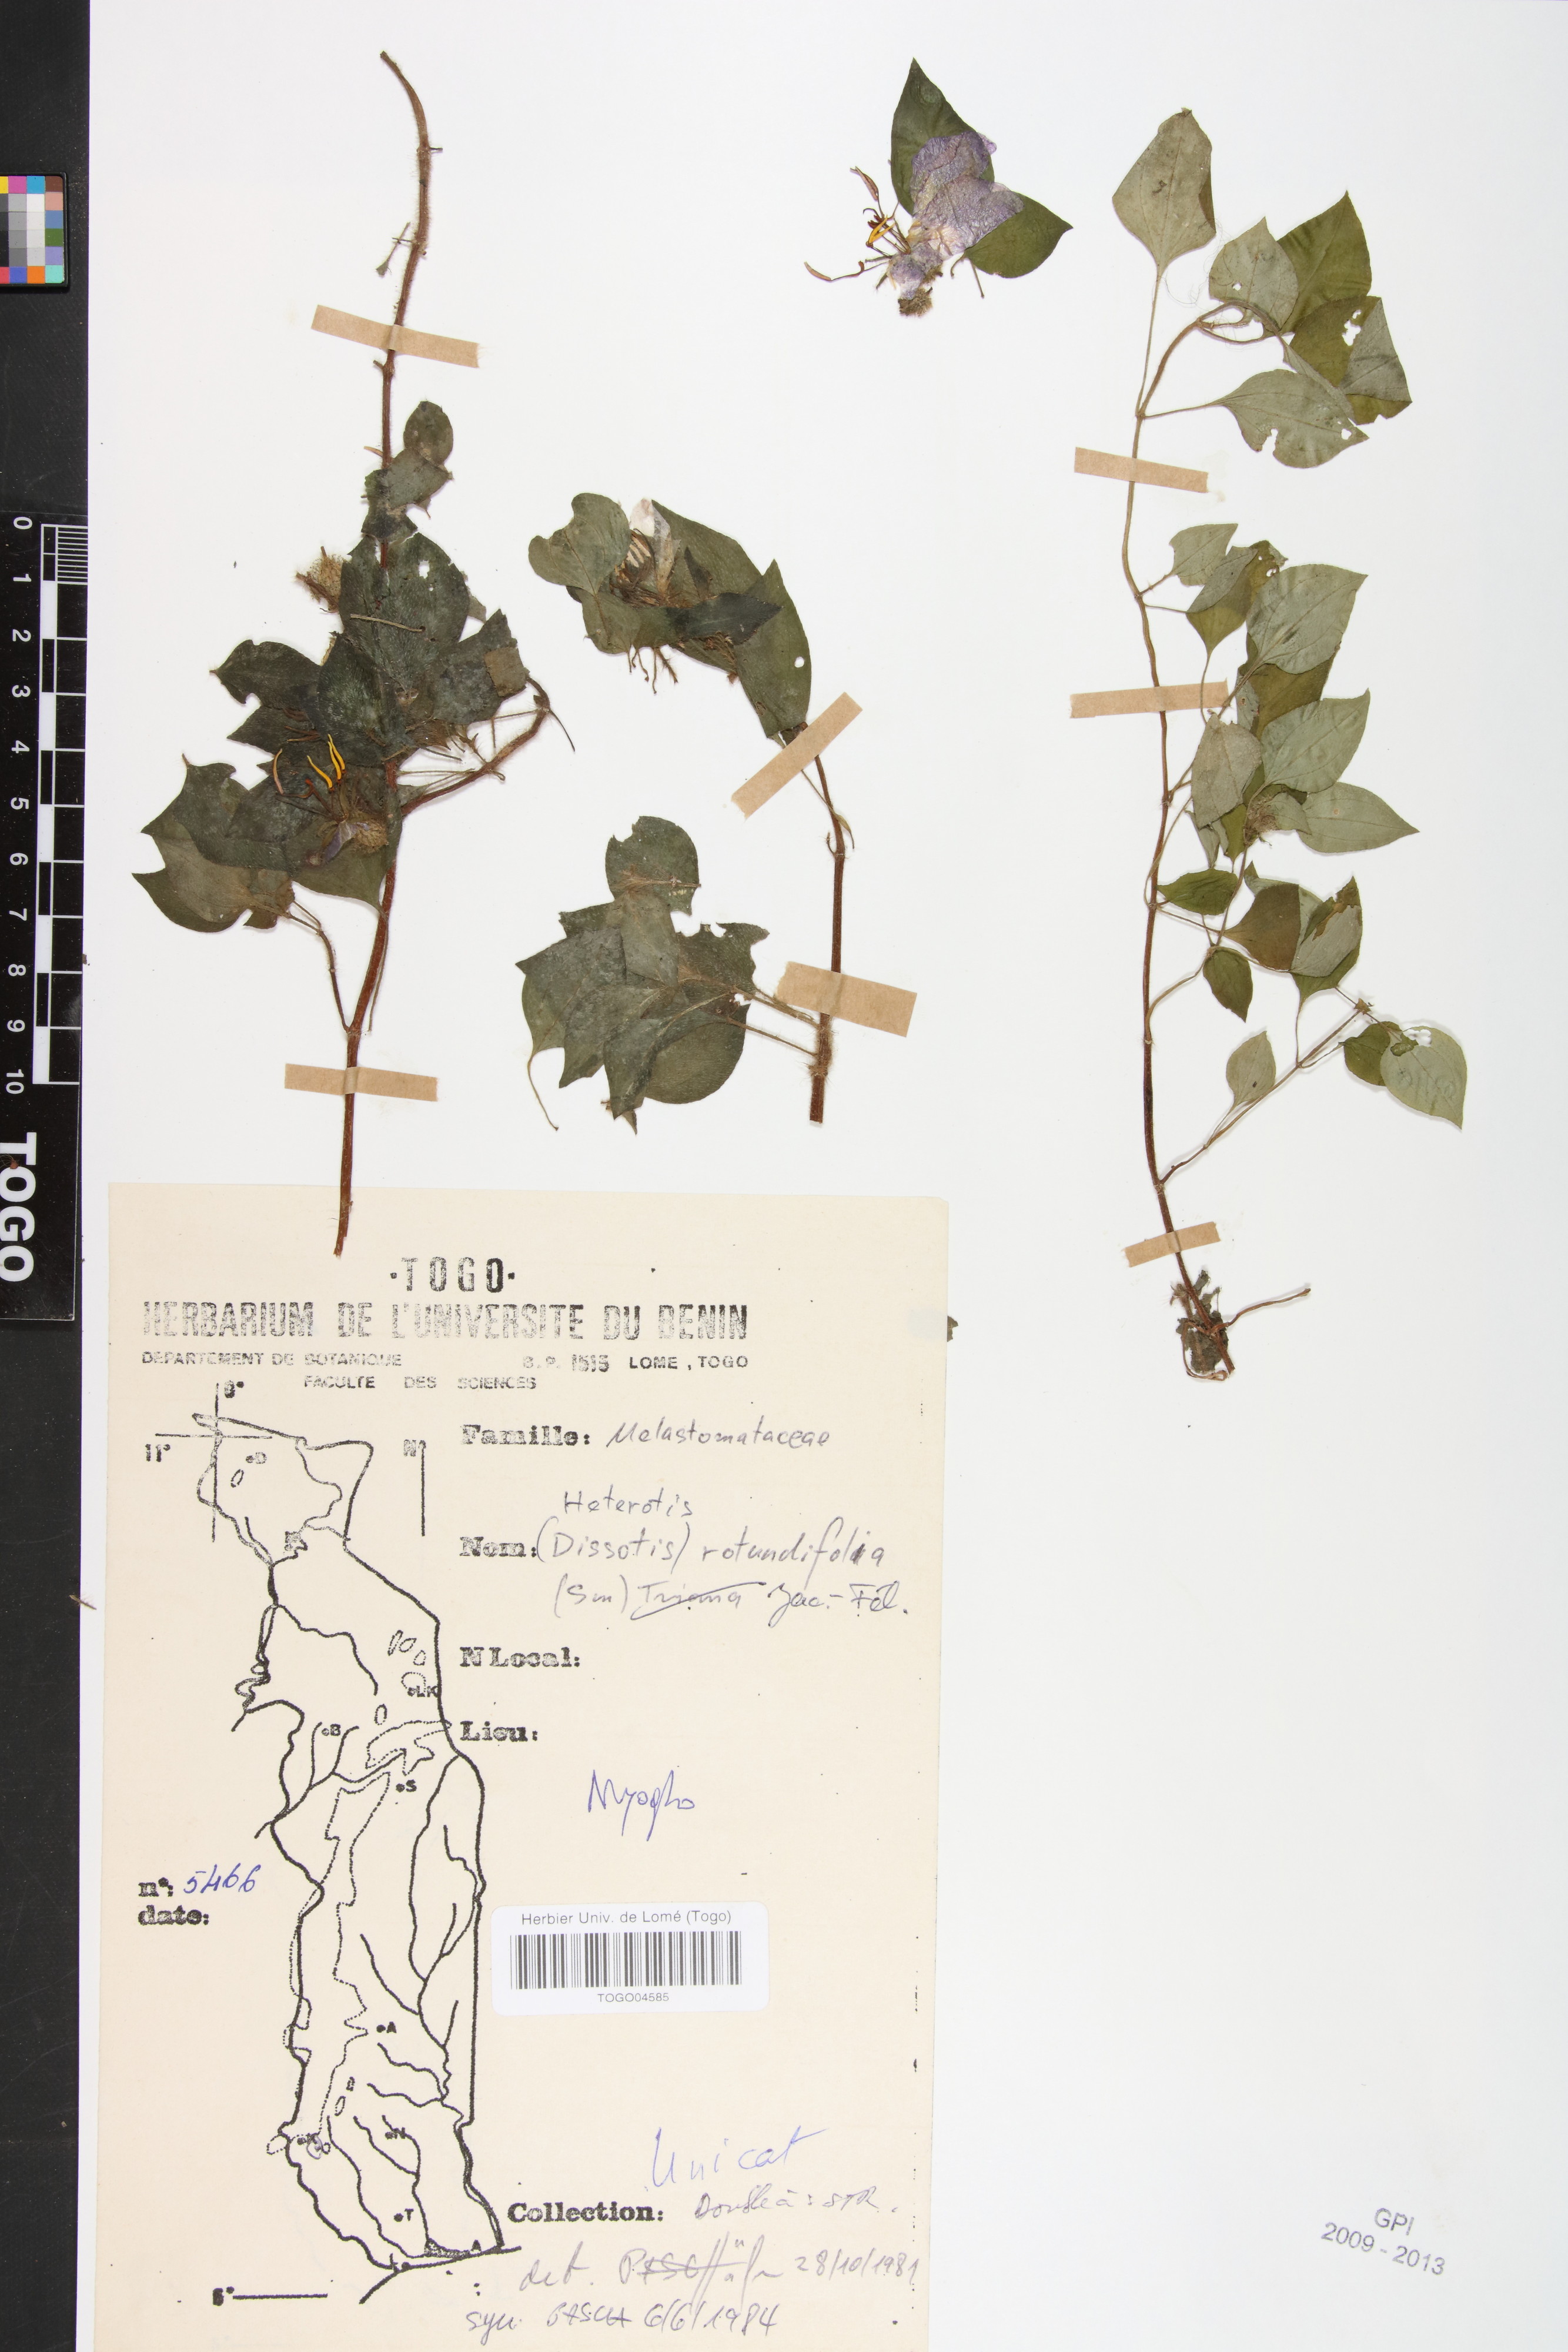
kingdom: Plantae
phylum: Tracheophyta
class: Magnoliopsida
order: Myrtales
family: Melastomataceae
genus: Heterotis
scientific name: Heterotis rotundifolia
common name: Pinklady
